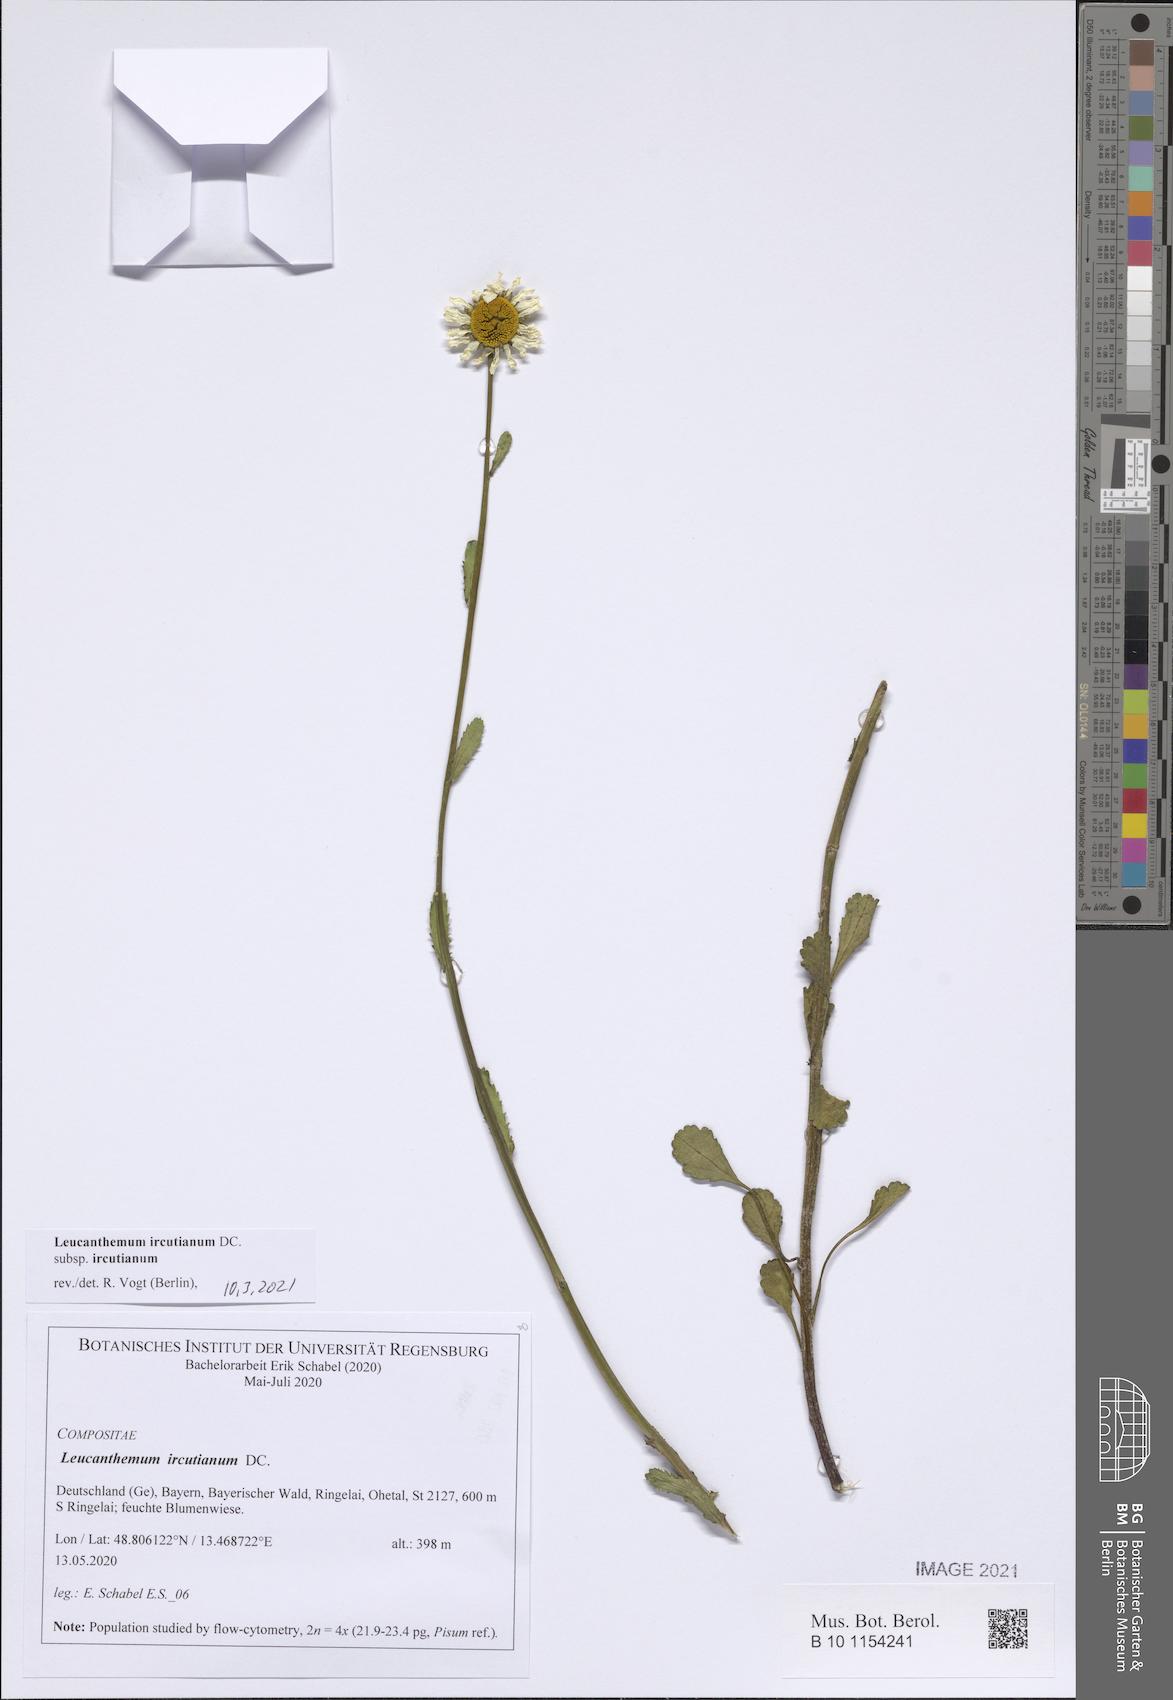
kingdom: Plantae
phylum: Tracheophyta
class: Magnoliopsida
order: Asterales
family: Asteraceae
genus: Leucanthemum
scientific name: Leucanthemum ircutianum
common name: Daisy
